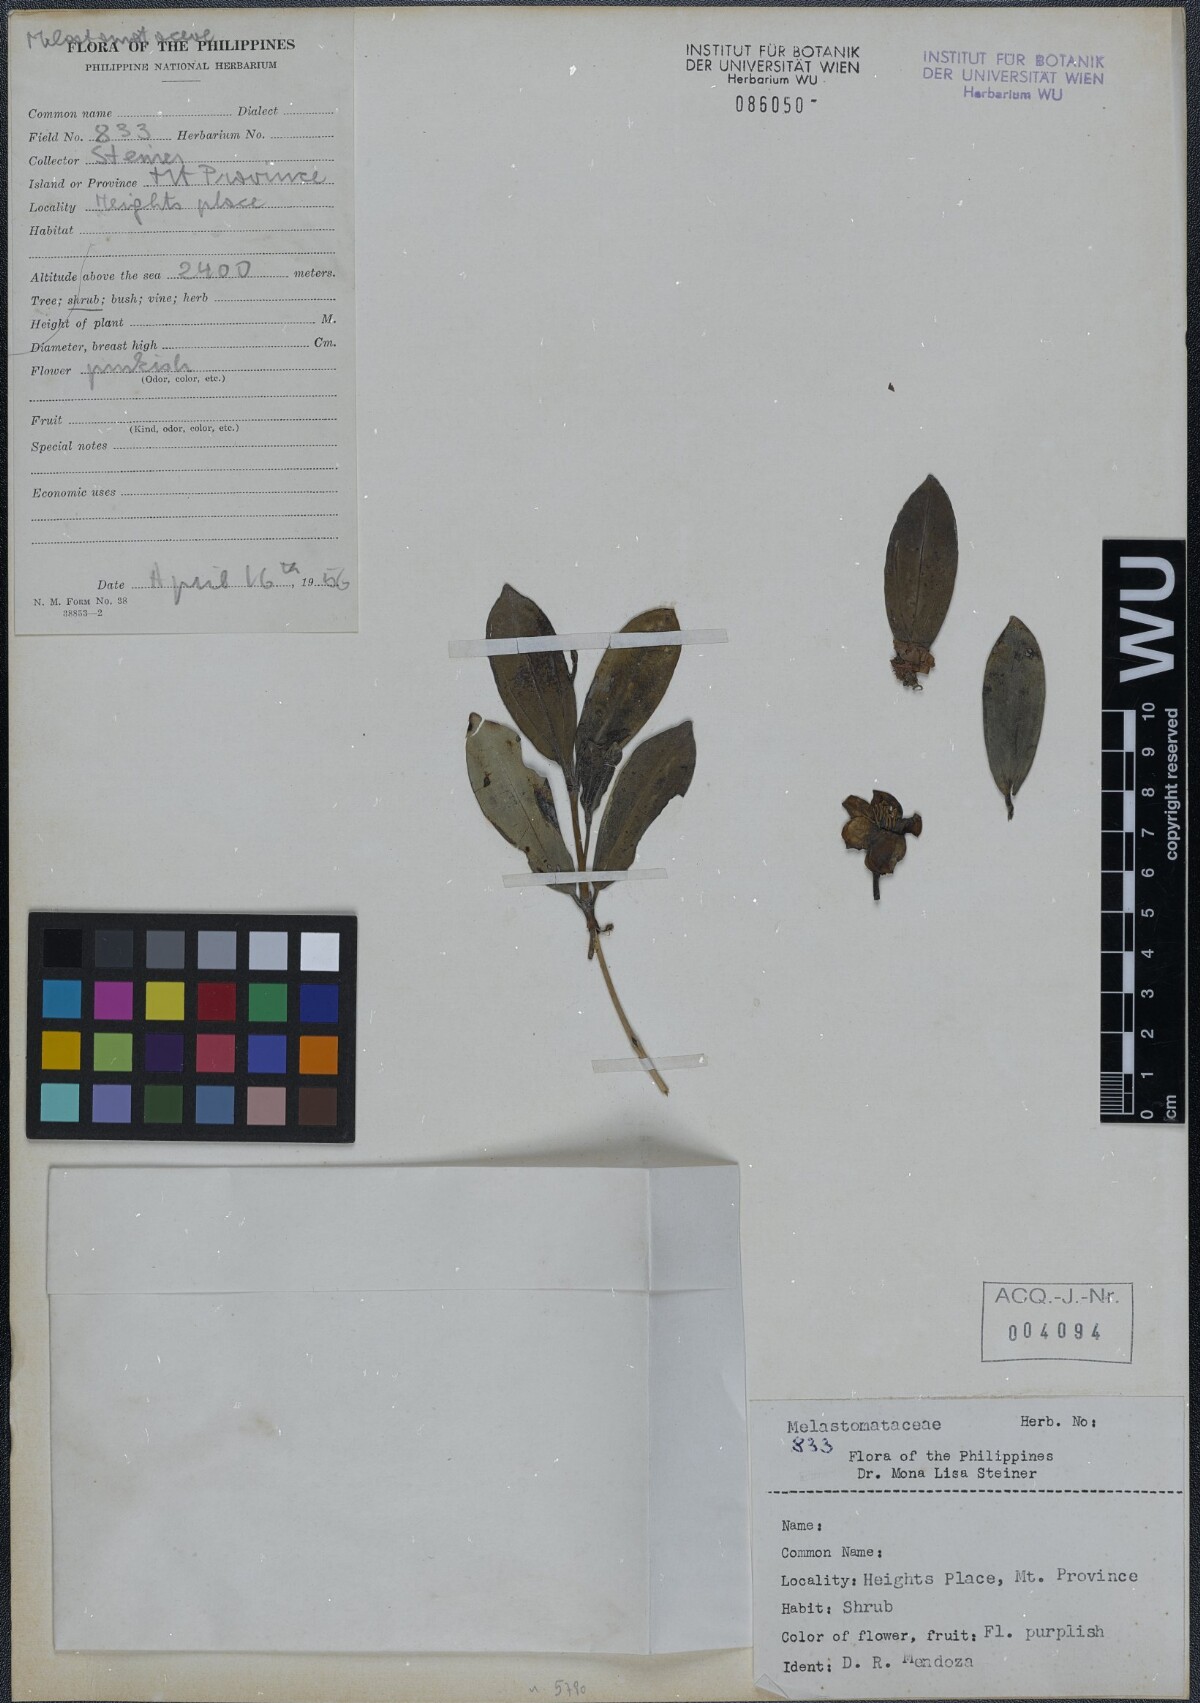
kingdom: Plantae
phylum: Tracheophyta
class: Magnoliopsida
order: Myrtales
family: Melastomataceae
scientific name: Melastomataceae
